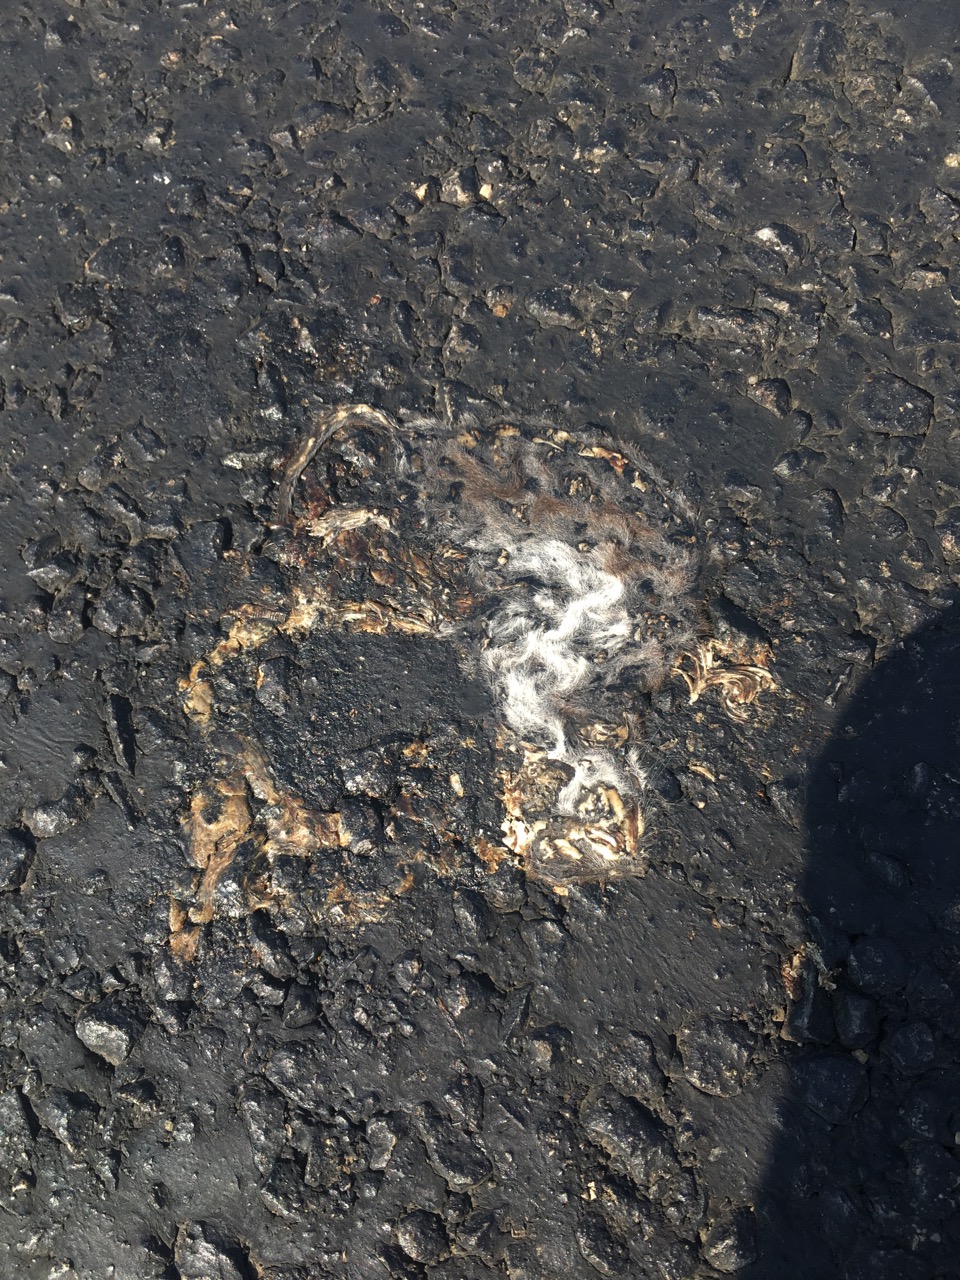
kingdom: Animalia
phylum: Chordata
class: Mammalia
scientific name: Mammalia
